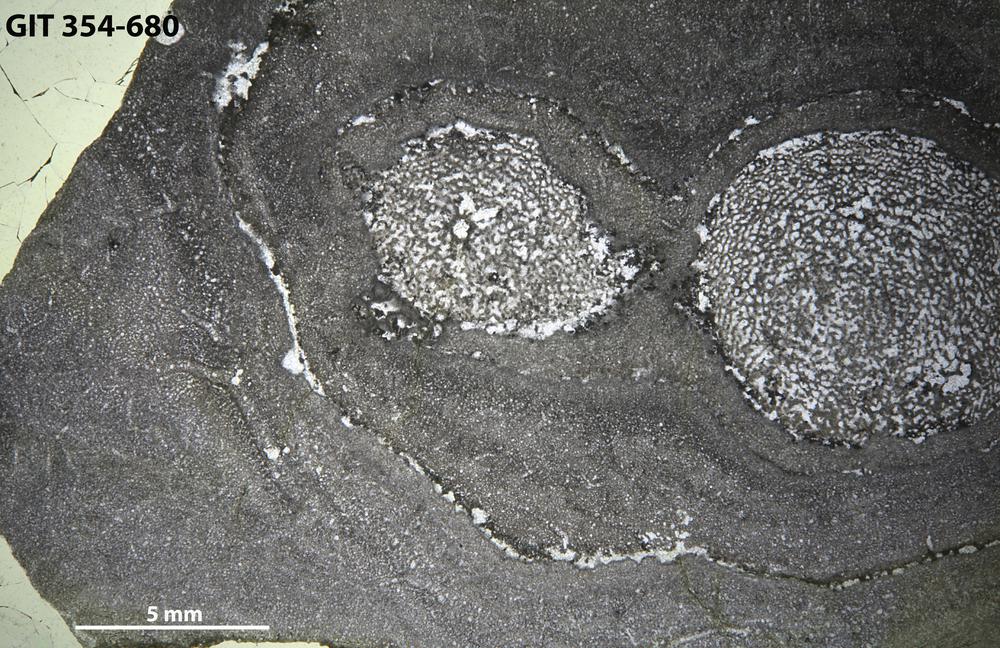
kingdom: Animalia
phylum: Porifera
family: Densastromatidae
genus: Araneosustroma
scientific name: Araneosustroma
